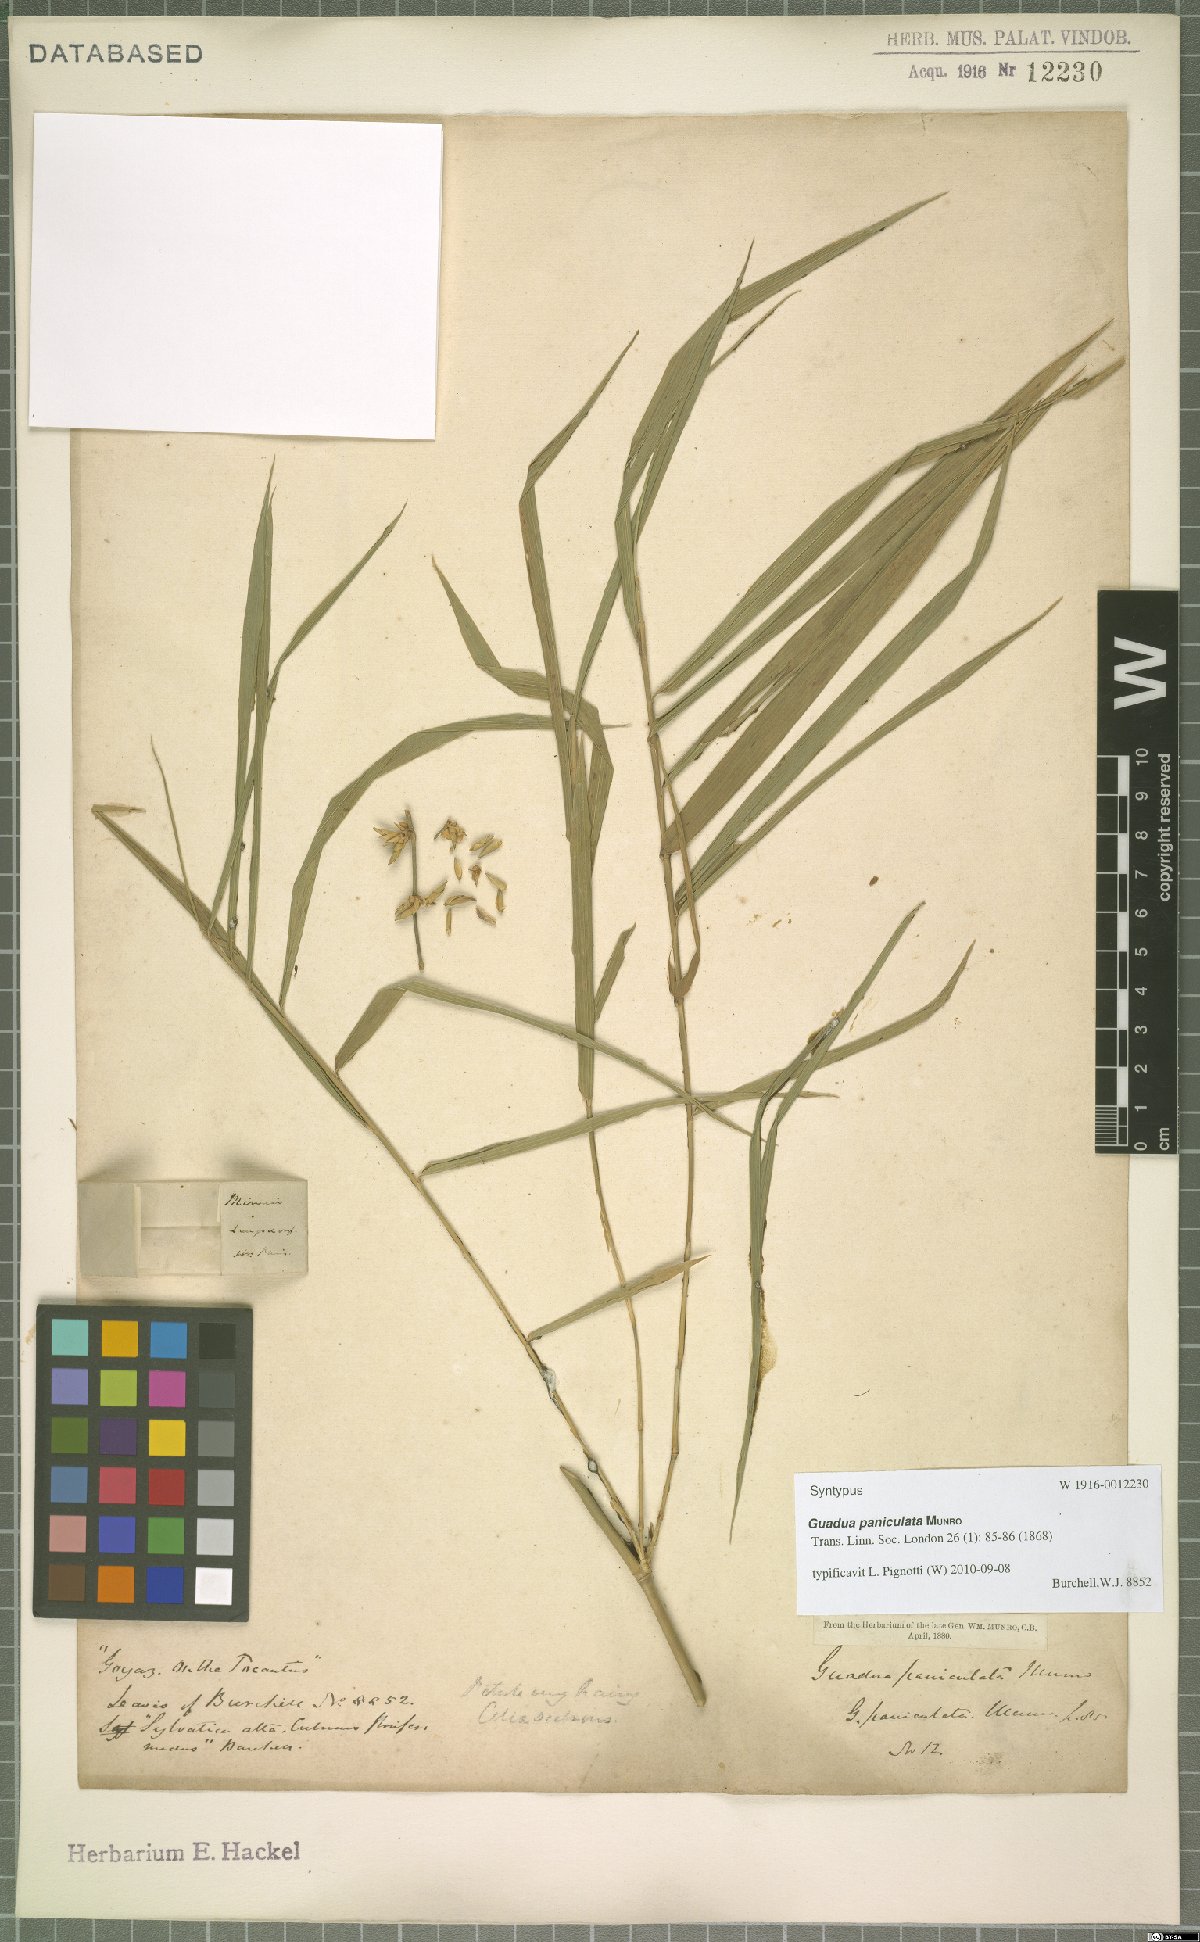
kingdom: Plantae
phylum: Tracheophyta
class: Liliopsida
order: Poales
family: Poaceae
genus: Guadua
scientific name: Guadua paniculata
